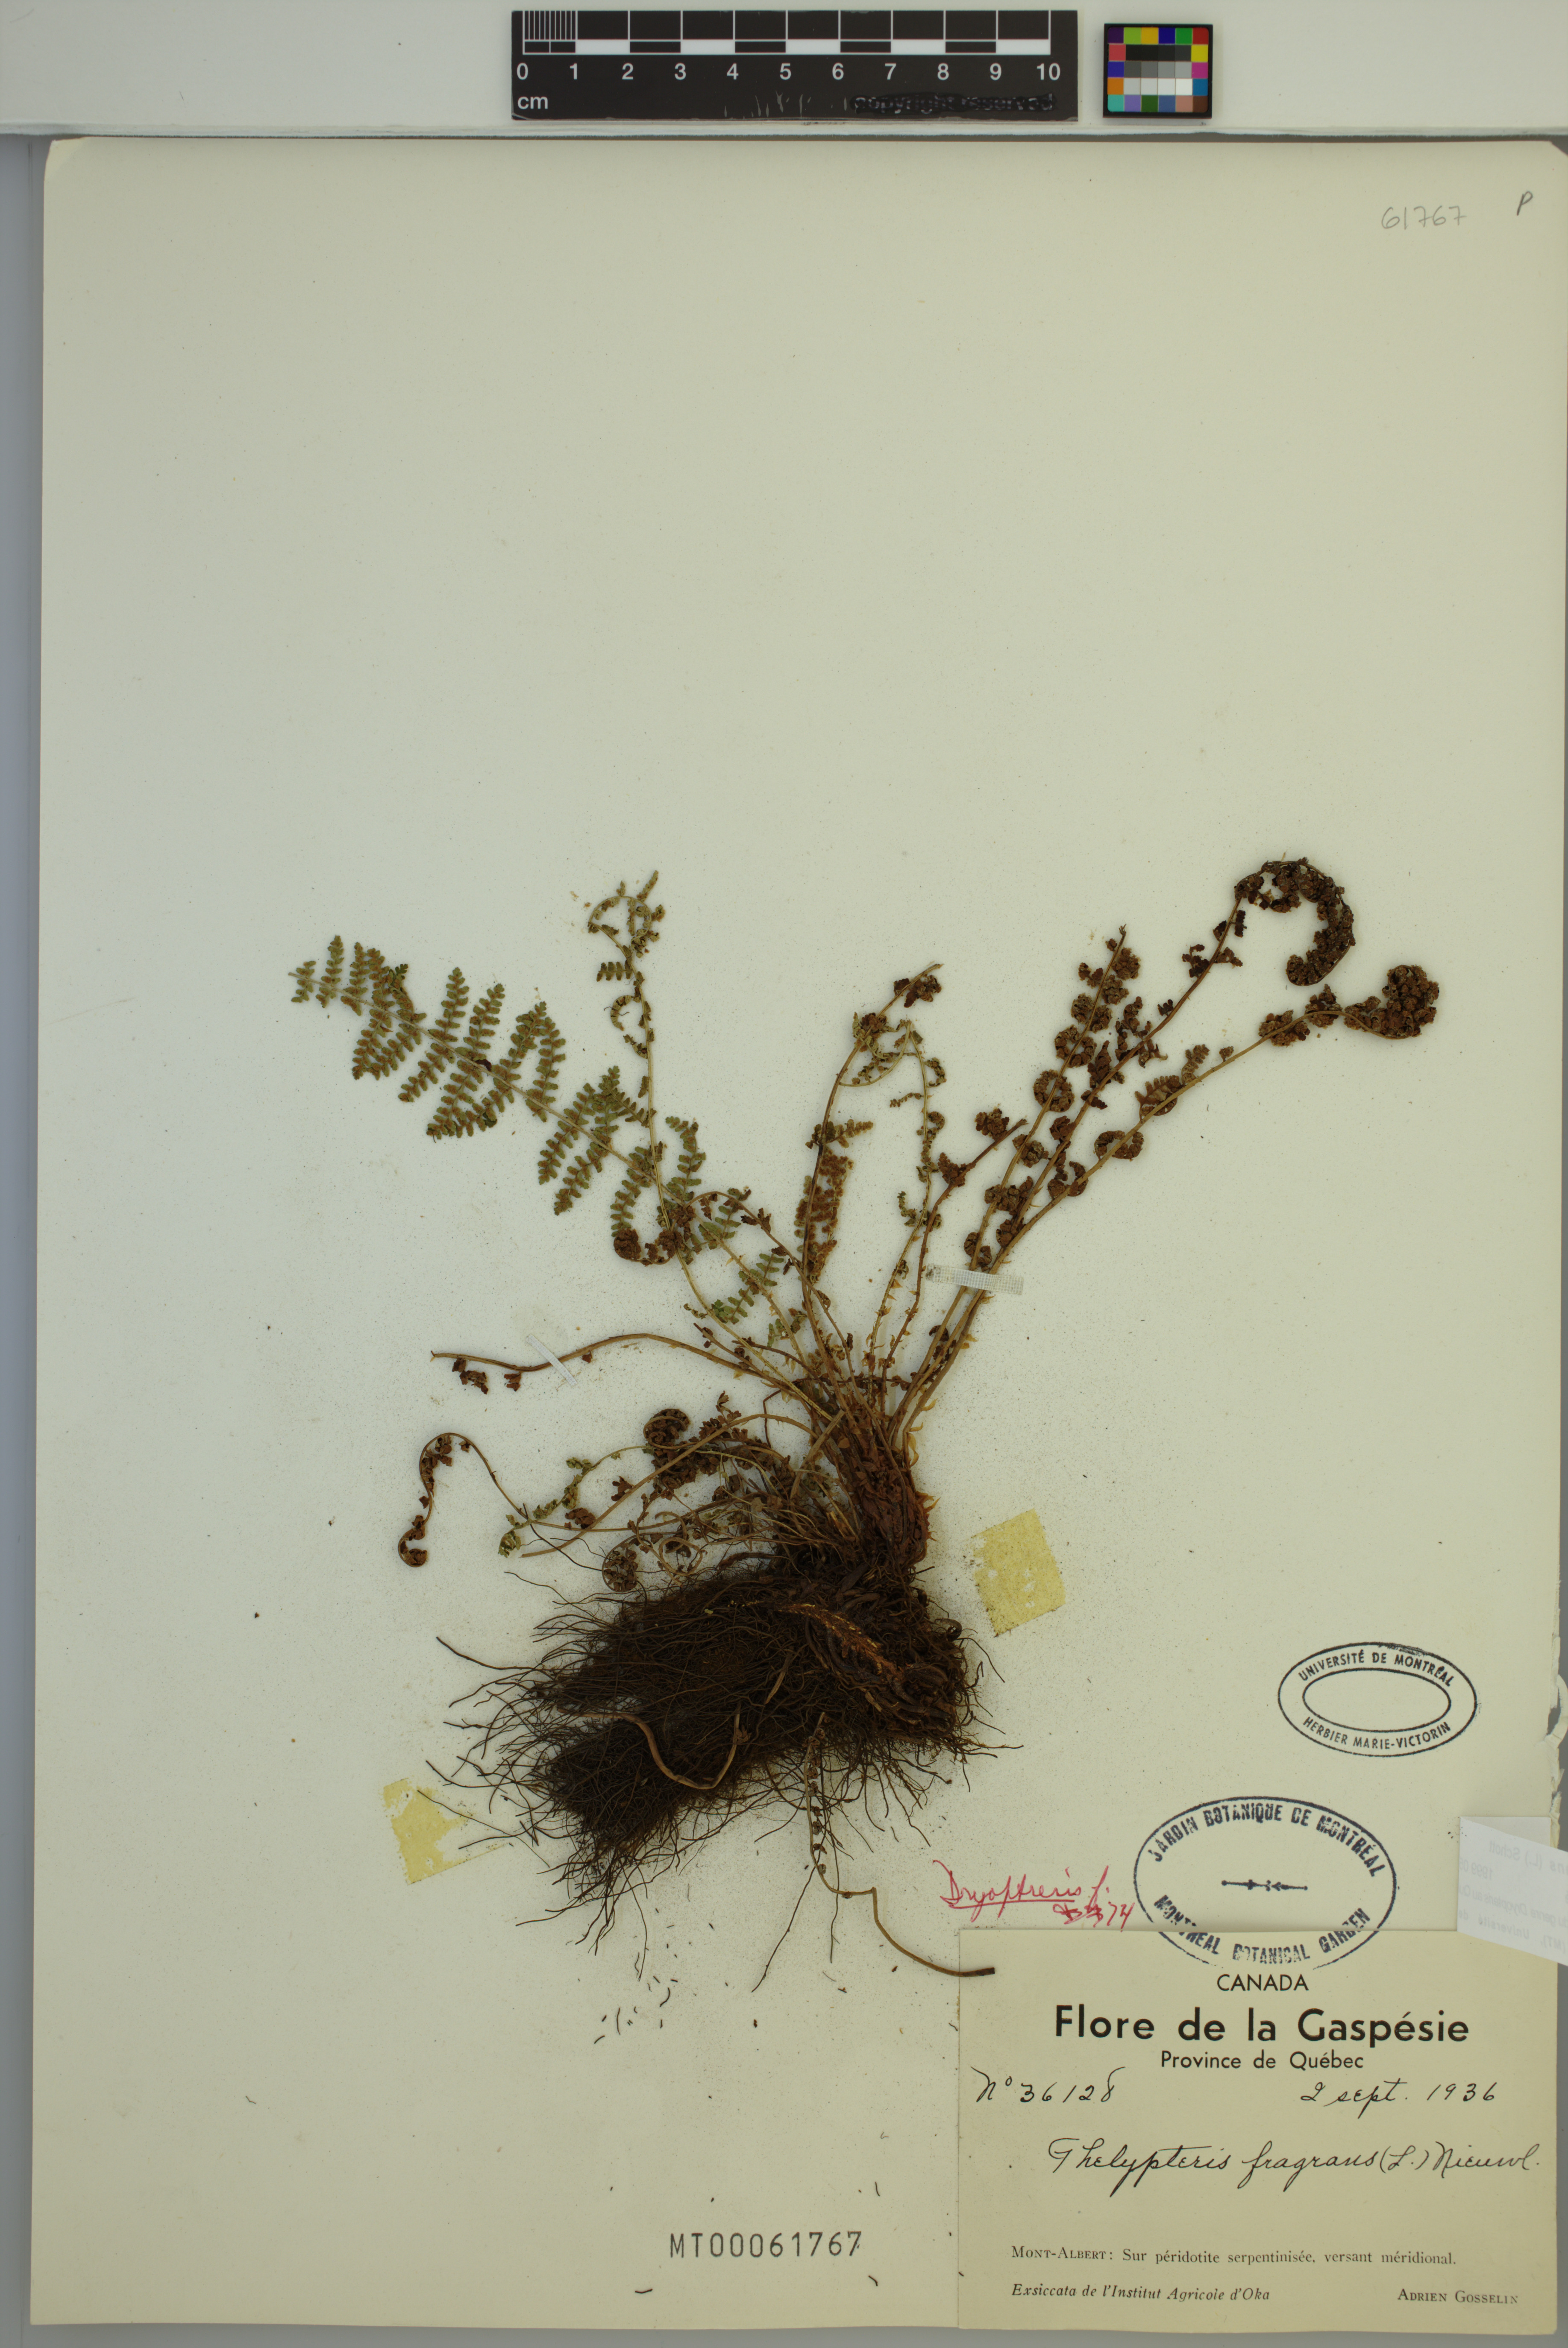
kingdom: Plantae
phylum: Tracheophyta
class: Polypodiopsida
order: Polypodiales
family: Dryopteridaceae
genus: Dryopteris
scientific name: Dryopteris fragrans
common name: Fragrant wood fern
